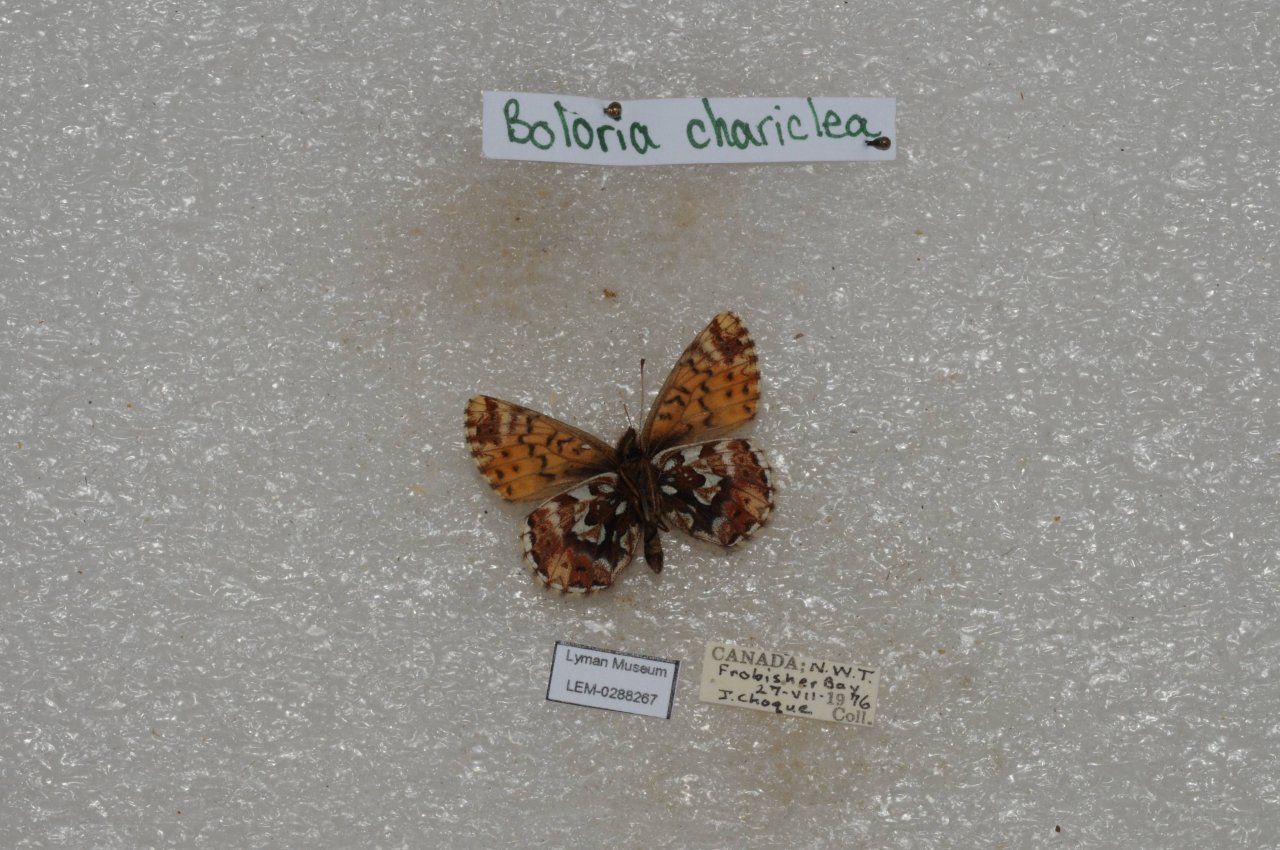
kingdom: Animalia
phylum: Arthropoda
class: Insecta
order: Lepidoptera
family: Nymphalidae
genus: Boloria
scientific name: Boloria chariclea
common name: Arctic Fritillary
